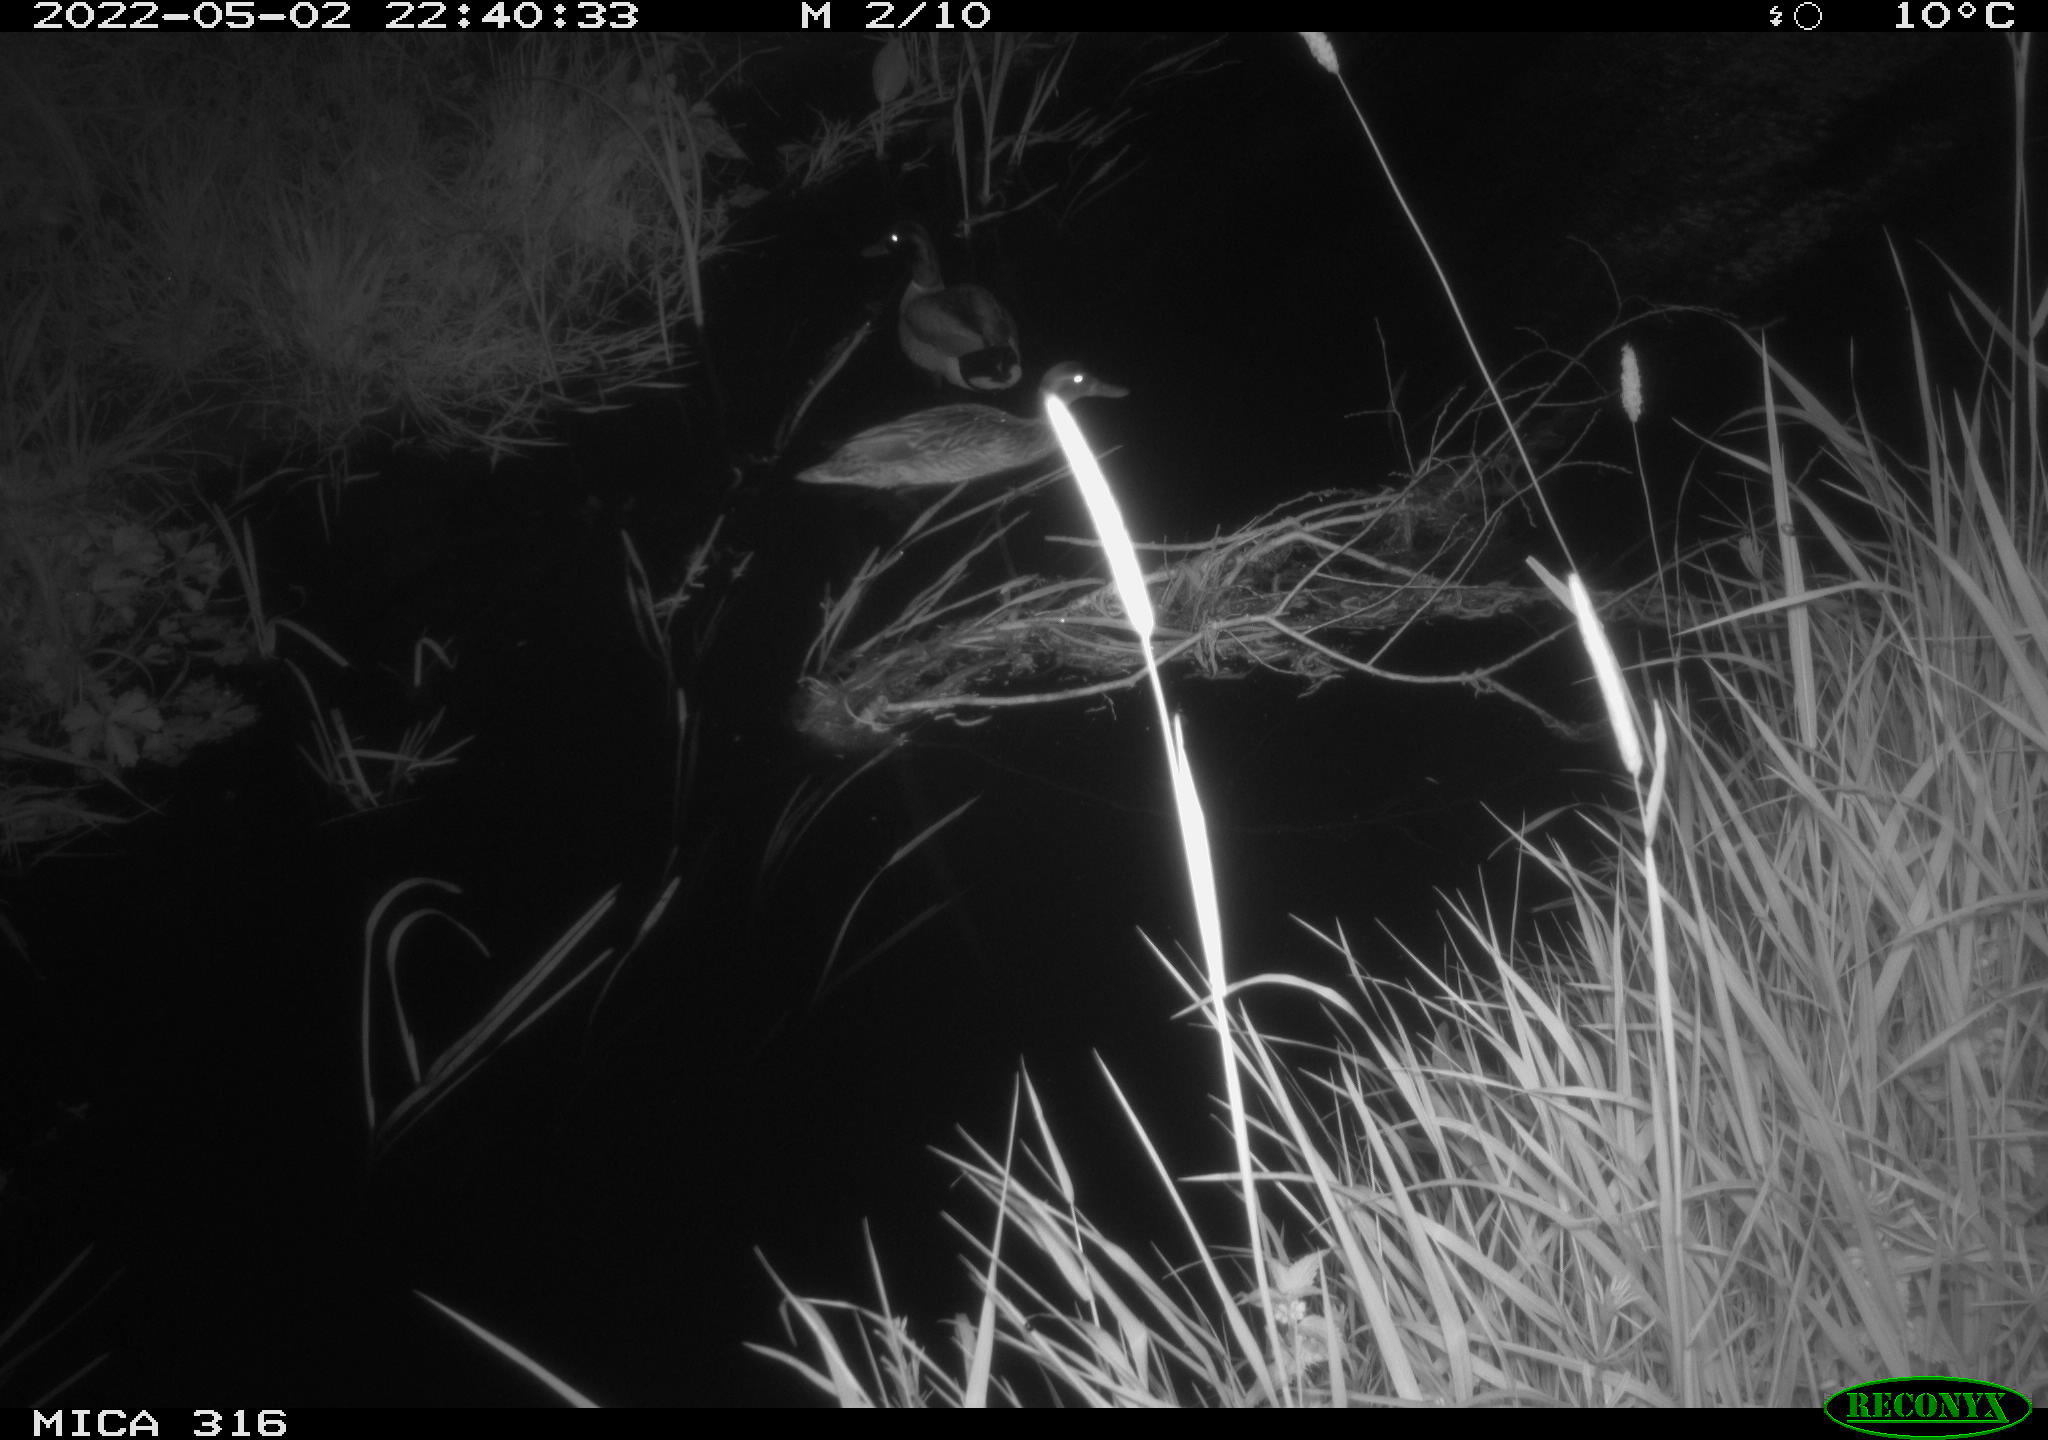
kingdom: Animalia
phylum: Chordata
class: Aves
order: Anseriformes
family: Anatidae
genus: Anas
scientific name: Anas platyrhynchos
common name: Mallard
